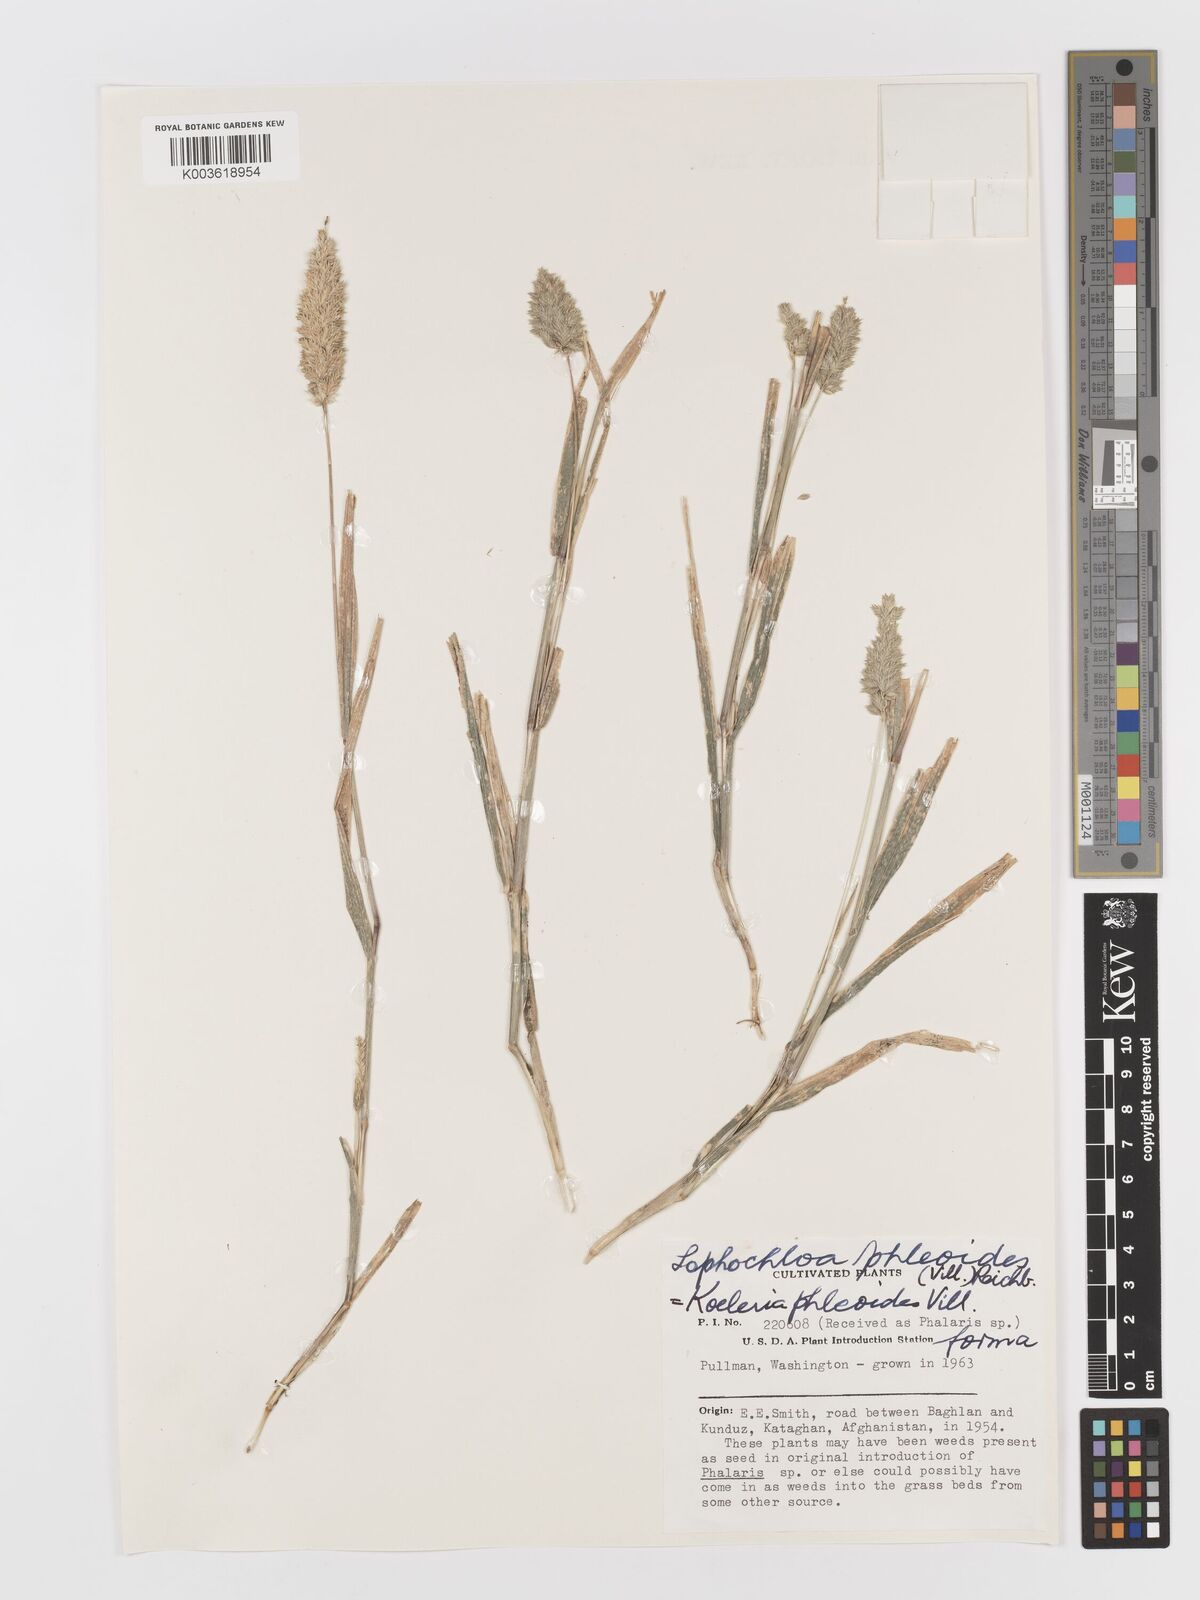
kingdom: Plantae
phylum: Tracheophyta
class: Liliopsida
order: Poales
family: Poaceae
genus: Rostraria
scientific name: Rostraria cristata
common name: Mediterranean hair-grass
